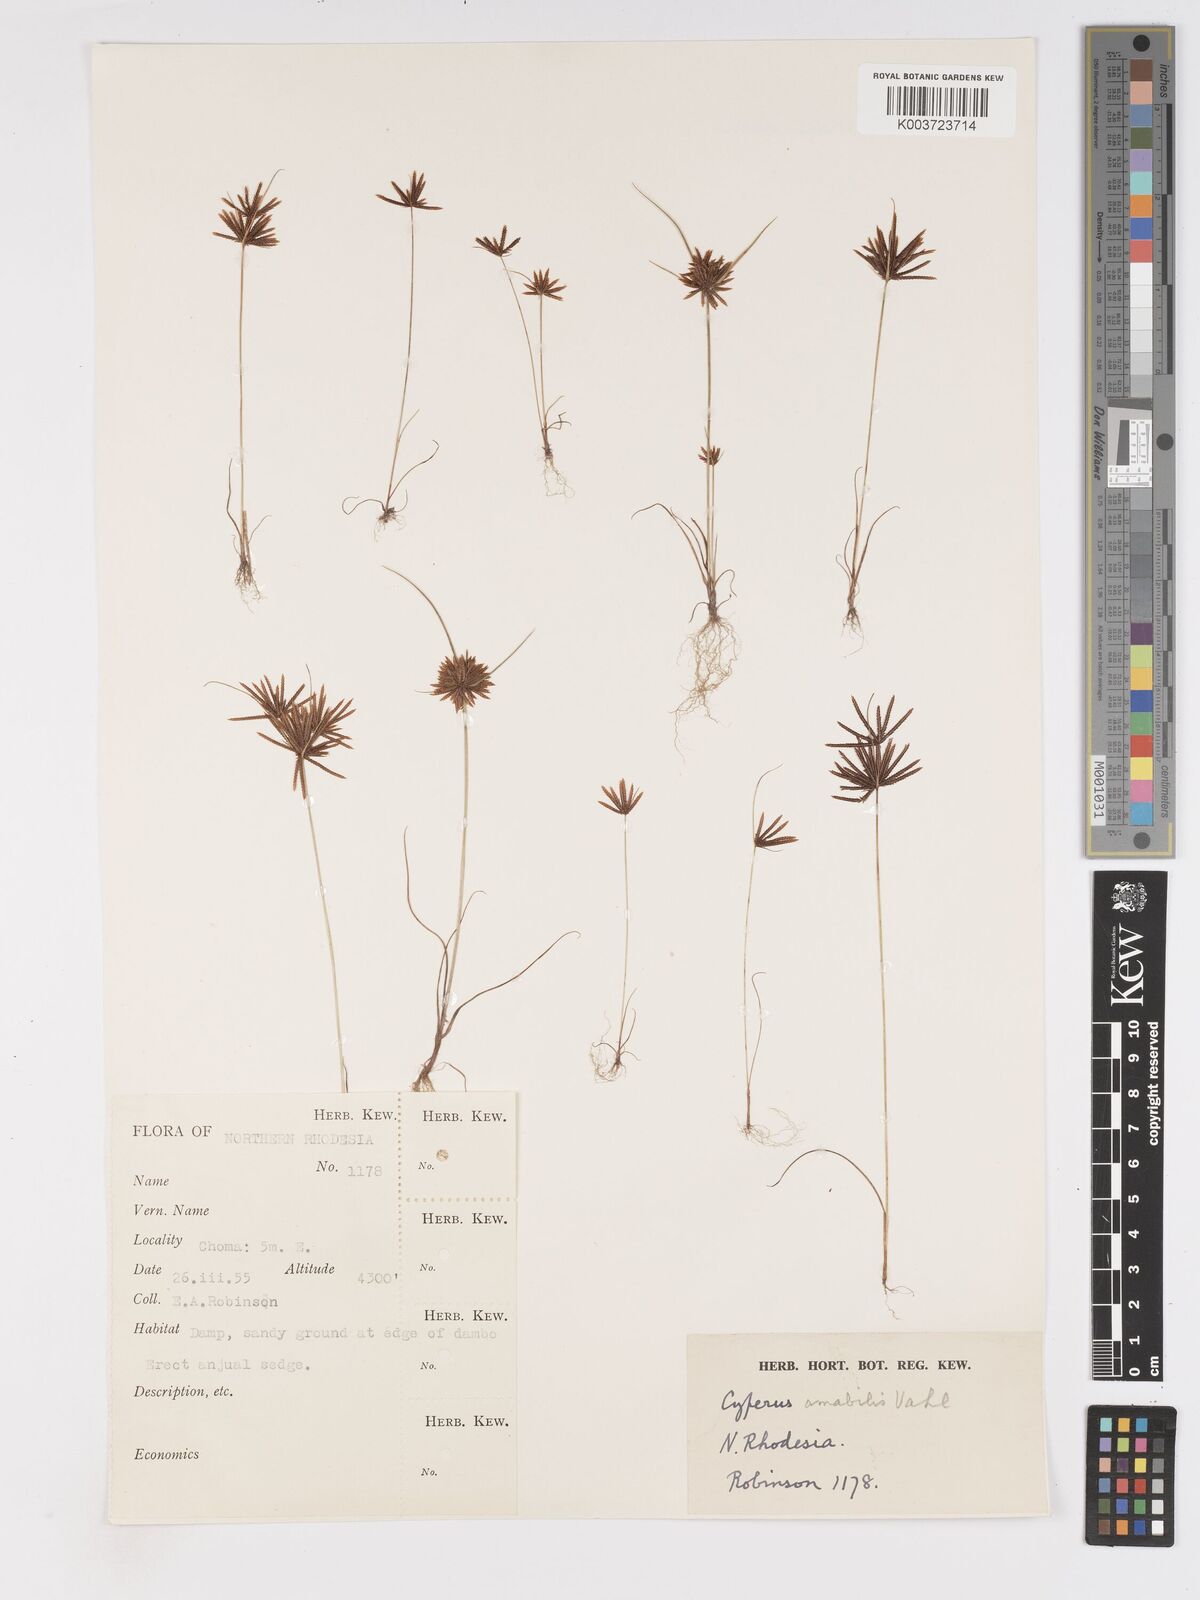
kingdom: Plantae
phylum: Tracheophyta
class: Liliopsida
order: Poales
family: Cyperaceae
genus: Cyperus
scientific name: Cyperus amabilis
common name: Foothill flat sedge
